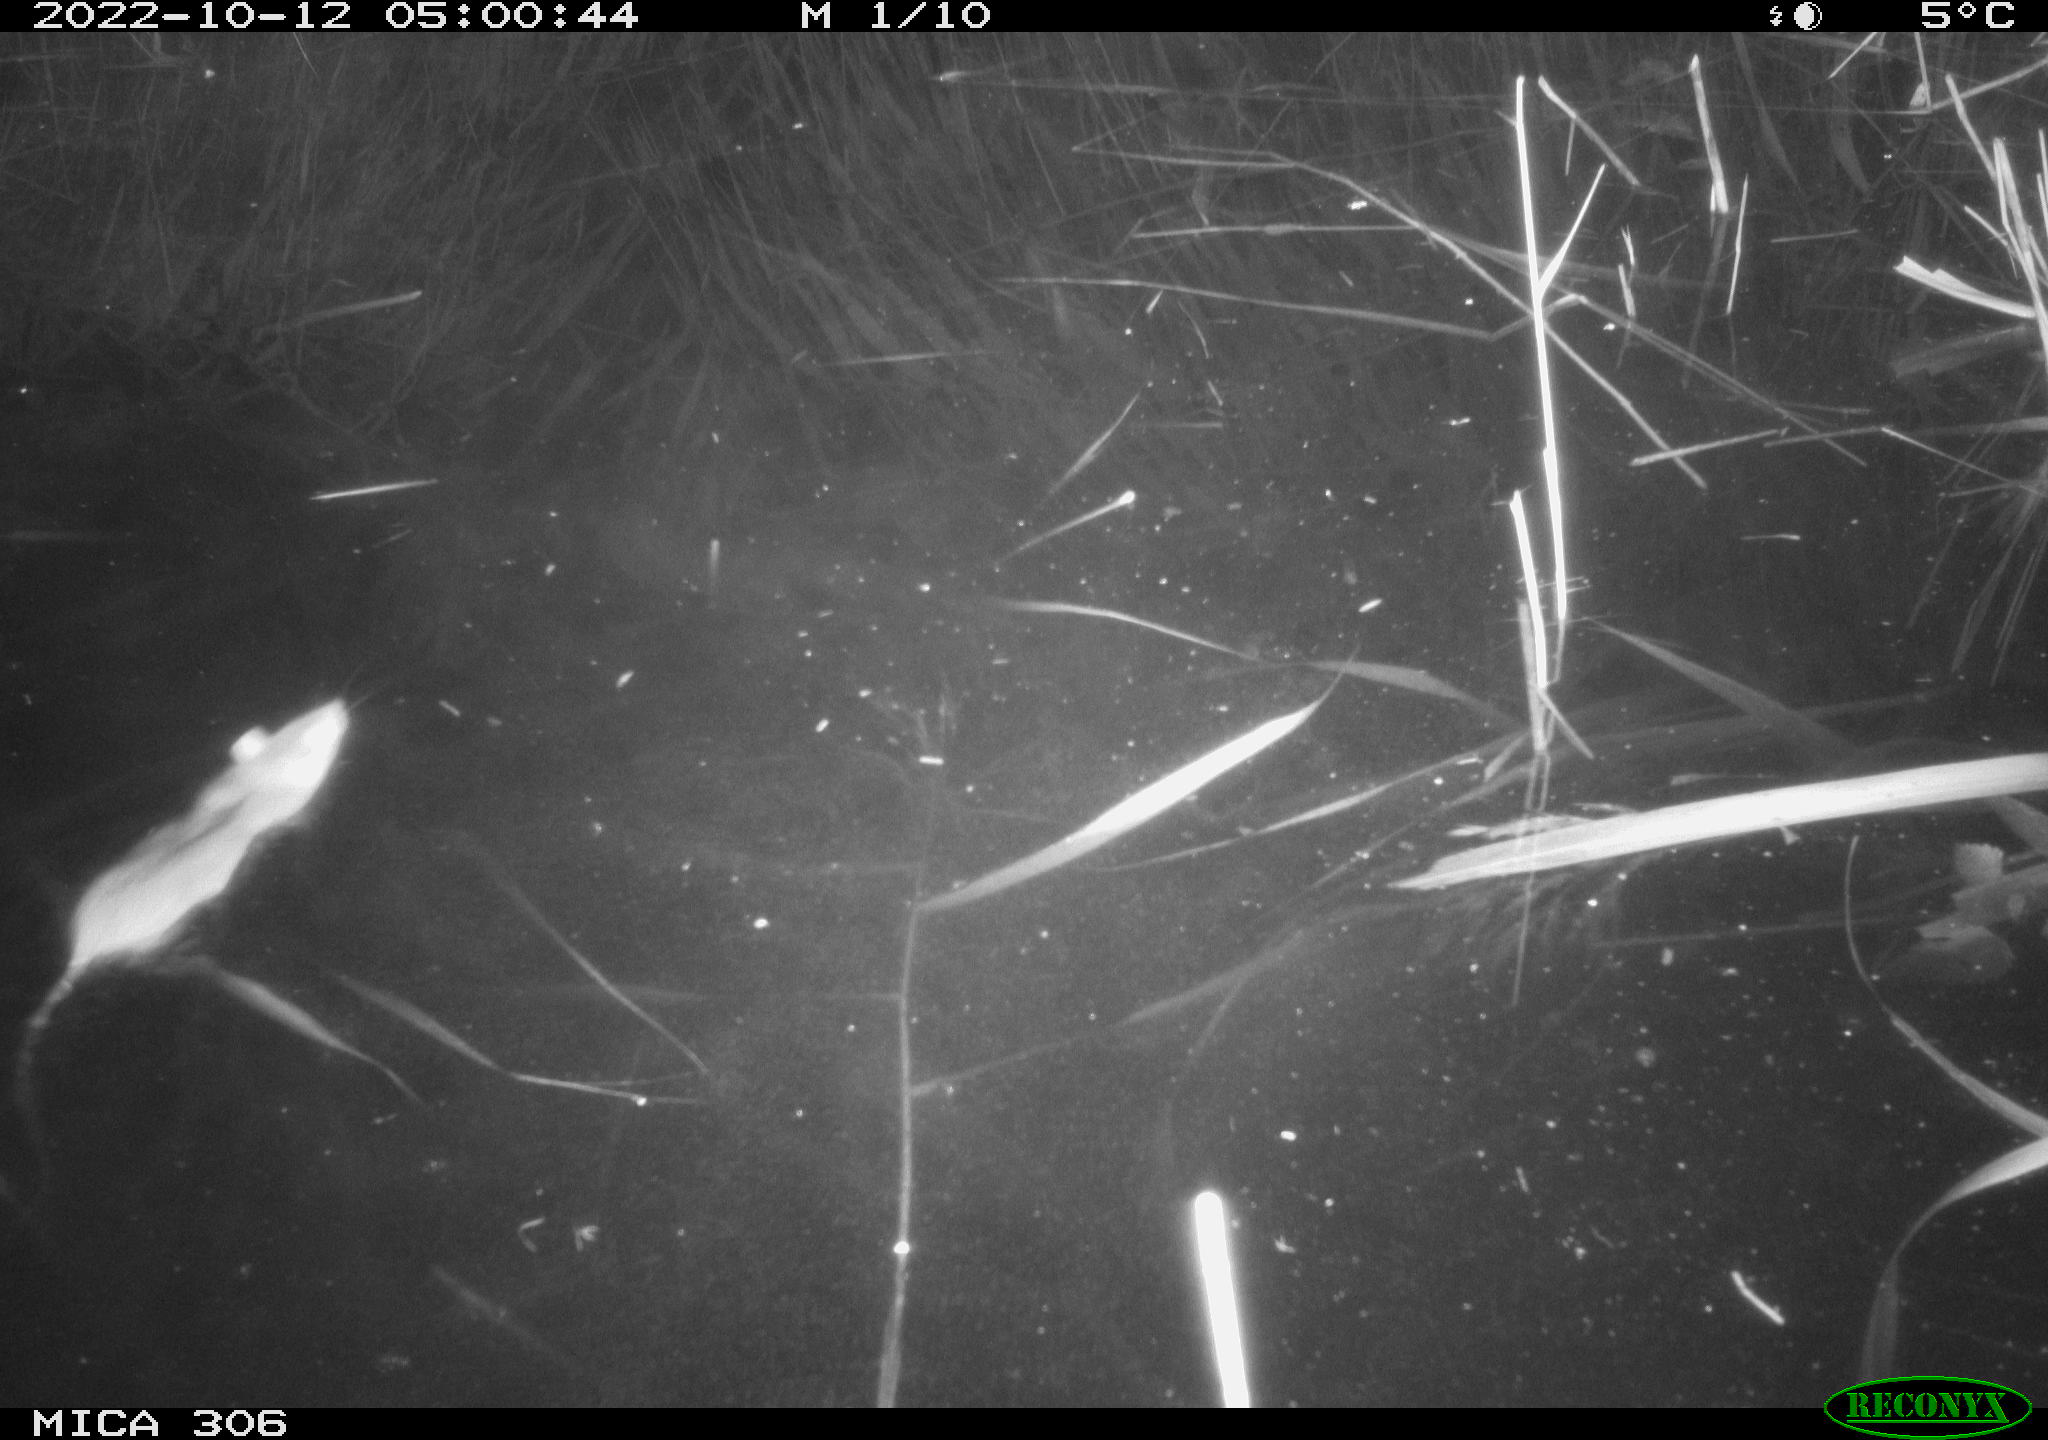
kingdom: Animalia
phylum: Chordata
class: Mammalia
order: Rodentia
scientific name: Rodentia
